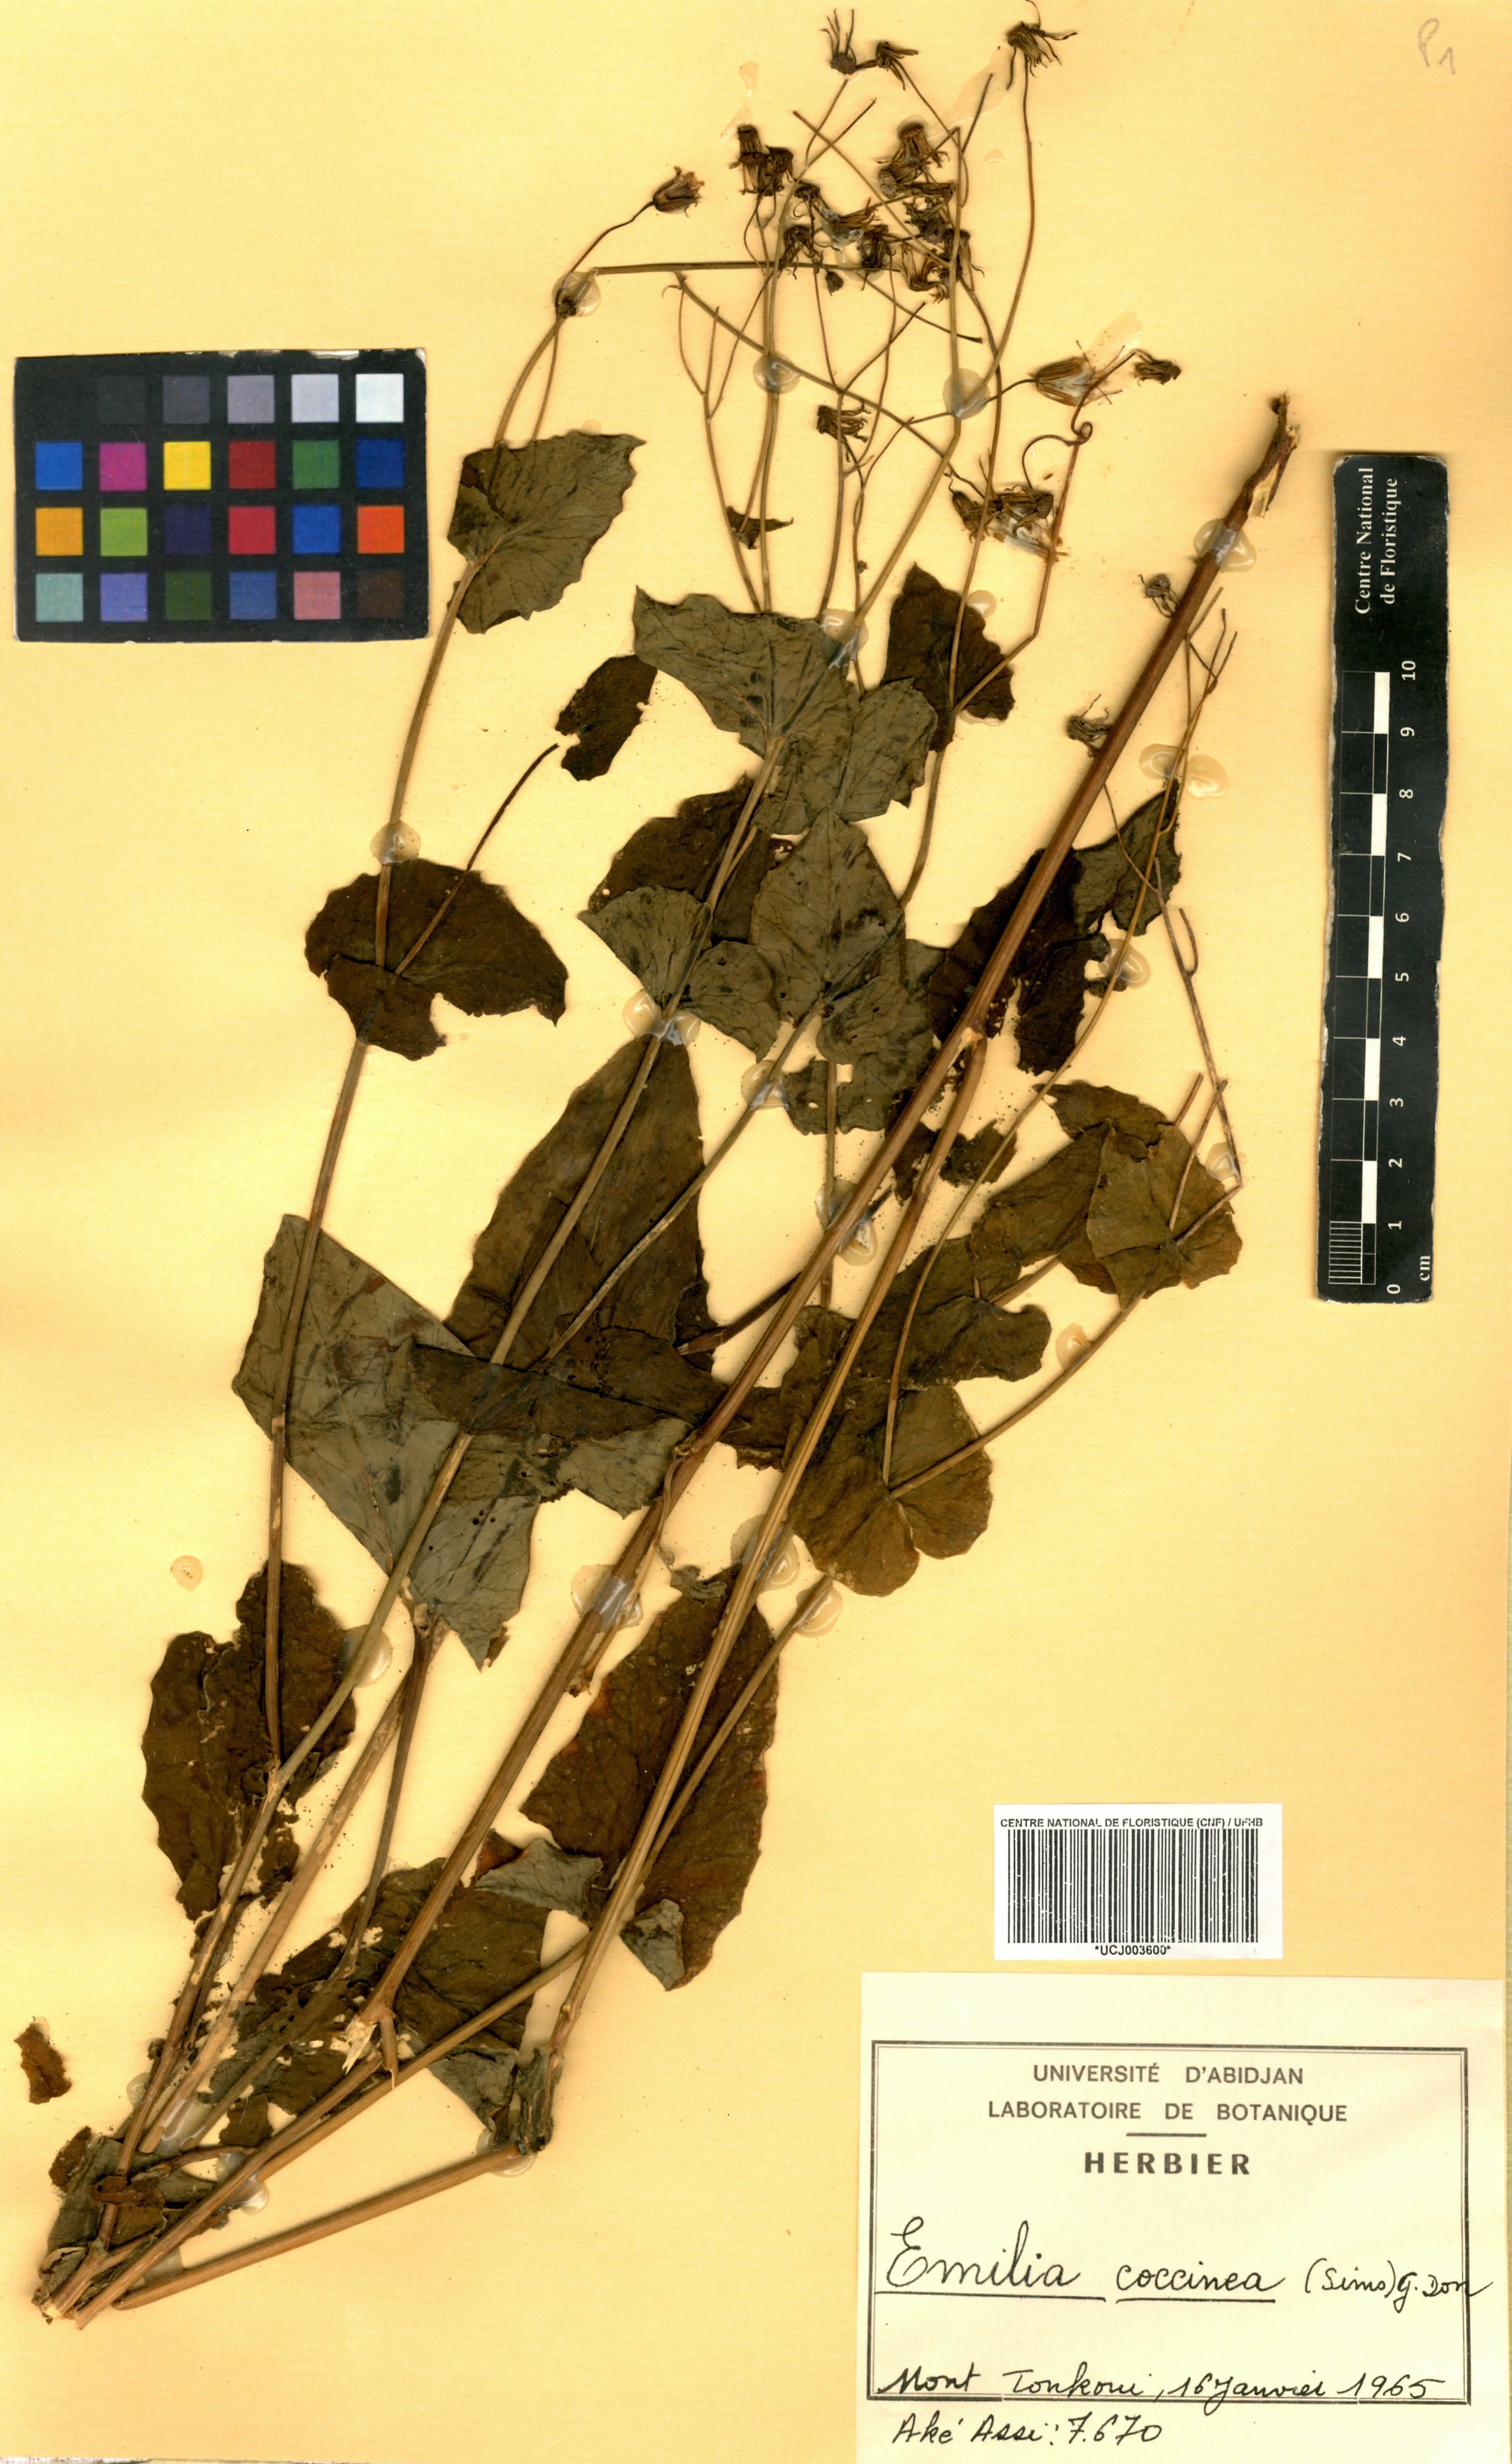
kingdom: Plantae
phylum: Tracheophyta
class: Magnoliopsida
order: Asterales
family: Asteraceae
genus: Emilia
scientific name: Emilia coccinea
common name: Scarlet tasselflower
